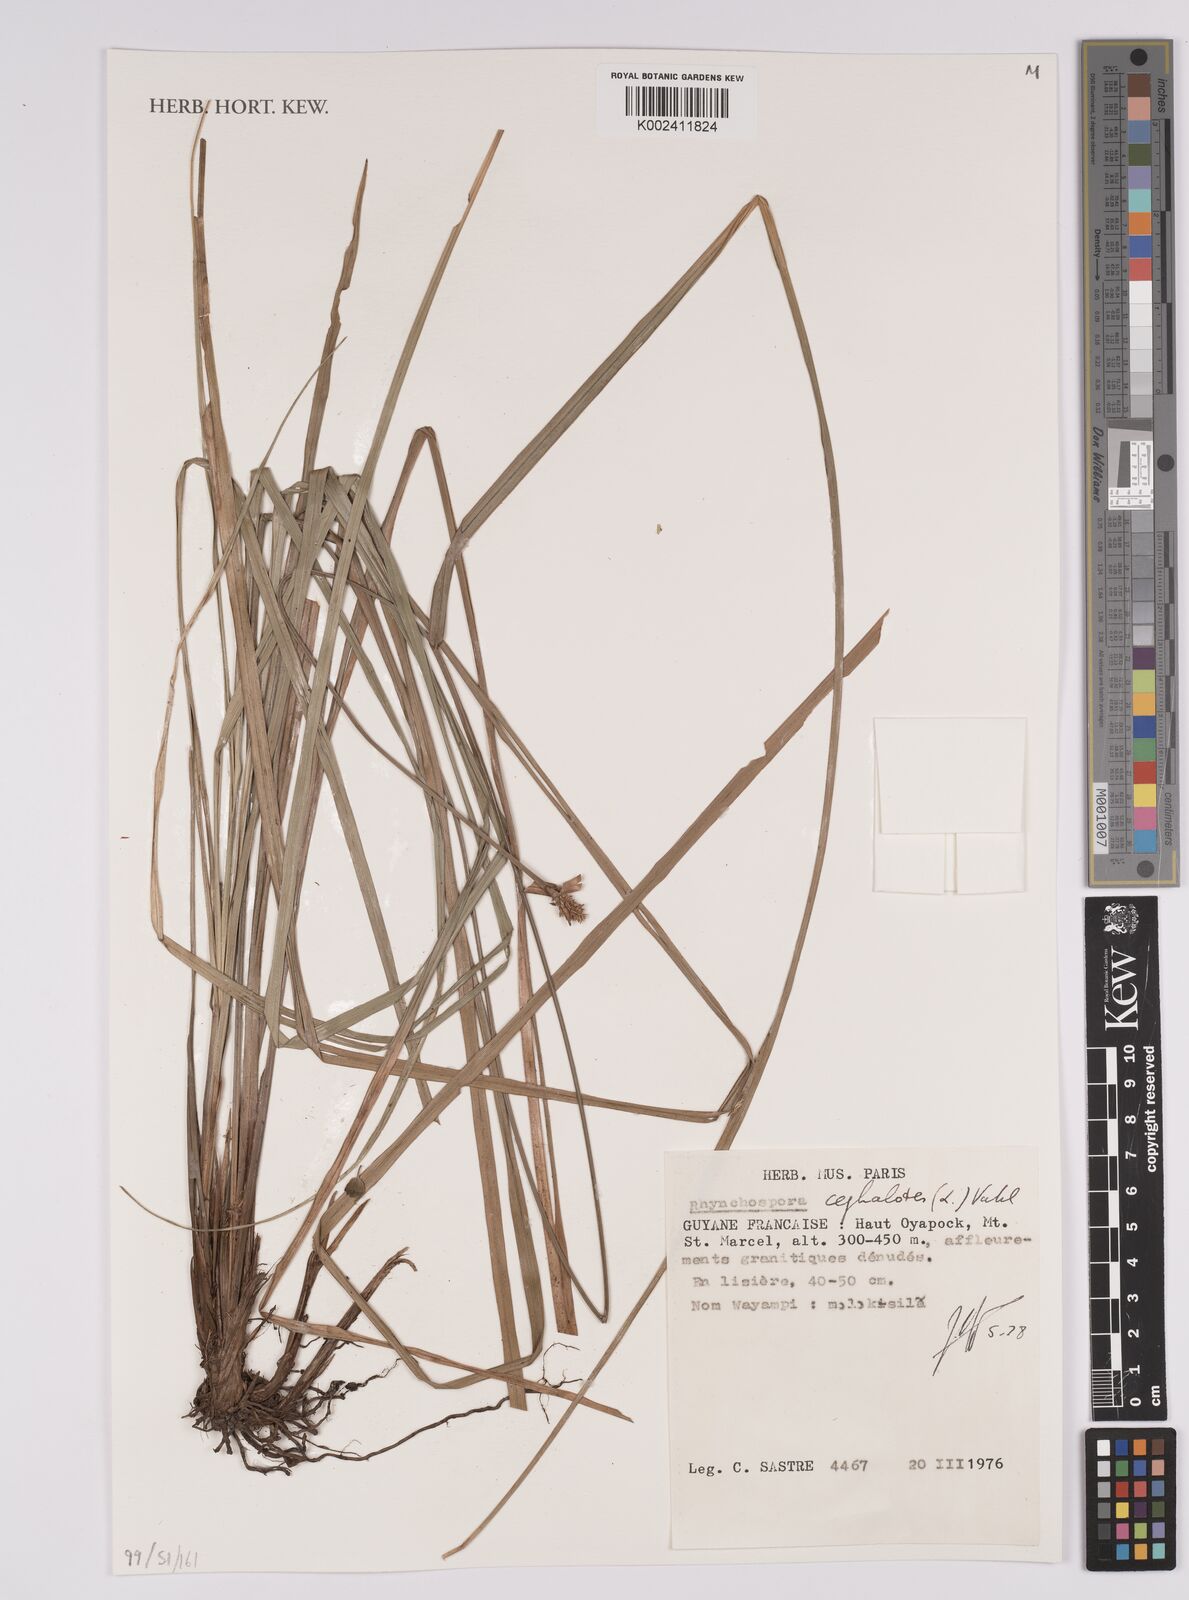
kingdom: Plantae
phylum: Tracheophyta
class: Liliopsida
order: Poales
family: Cyperaceae
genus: Rhynchospora
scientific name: Rhynchospora cephalotes
